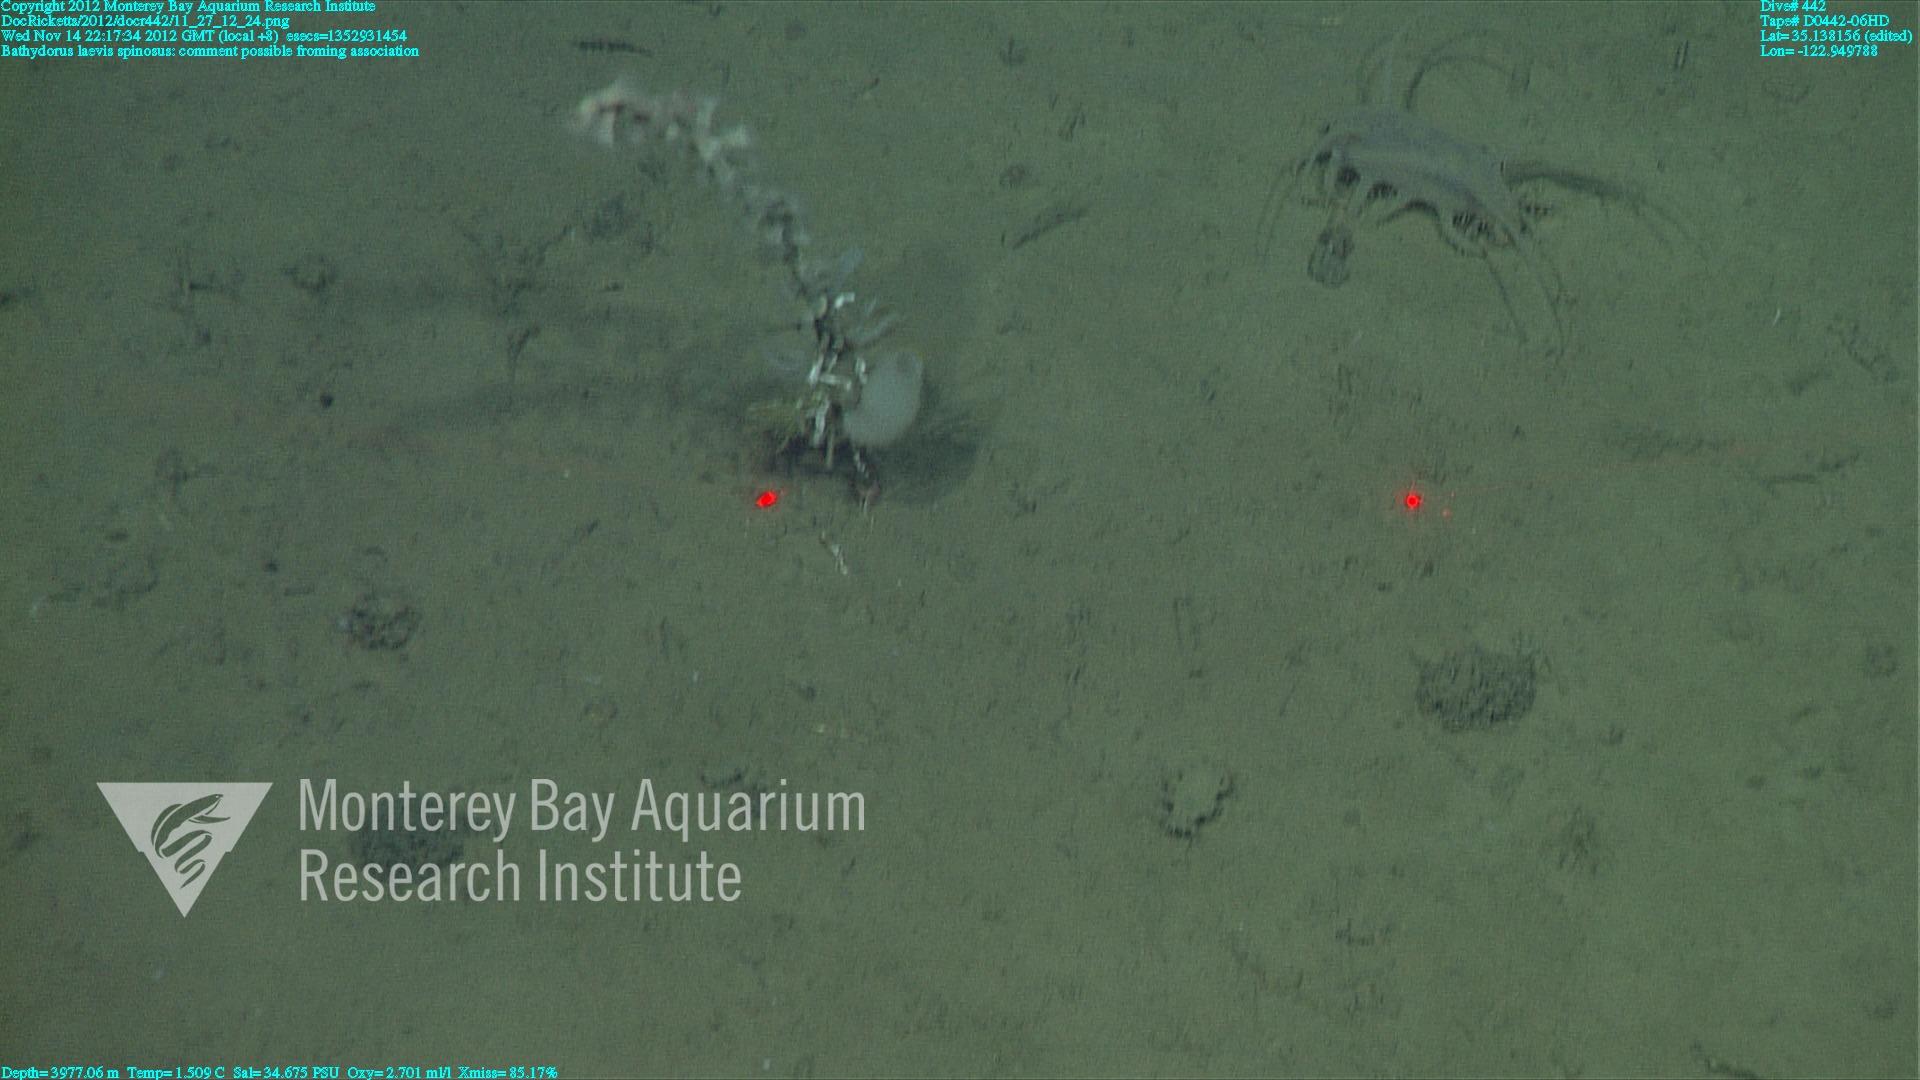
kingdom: Animalia
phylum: Porifera
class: Hexactinellida
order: Lyssacinosida
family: Rossellidae
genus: Bathydorus
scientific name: Bathydorus spinosus
